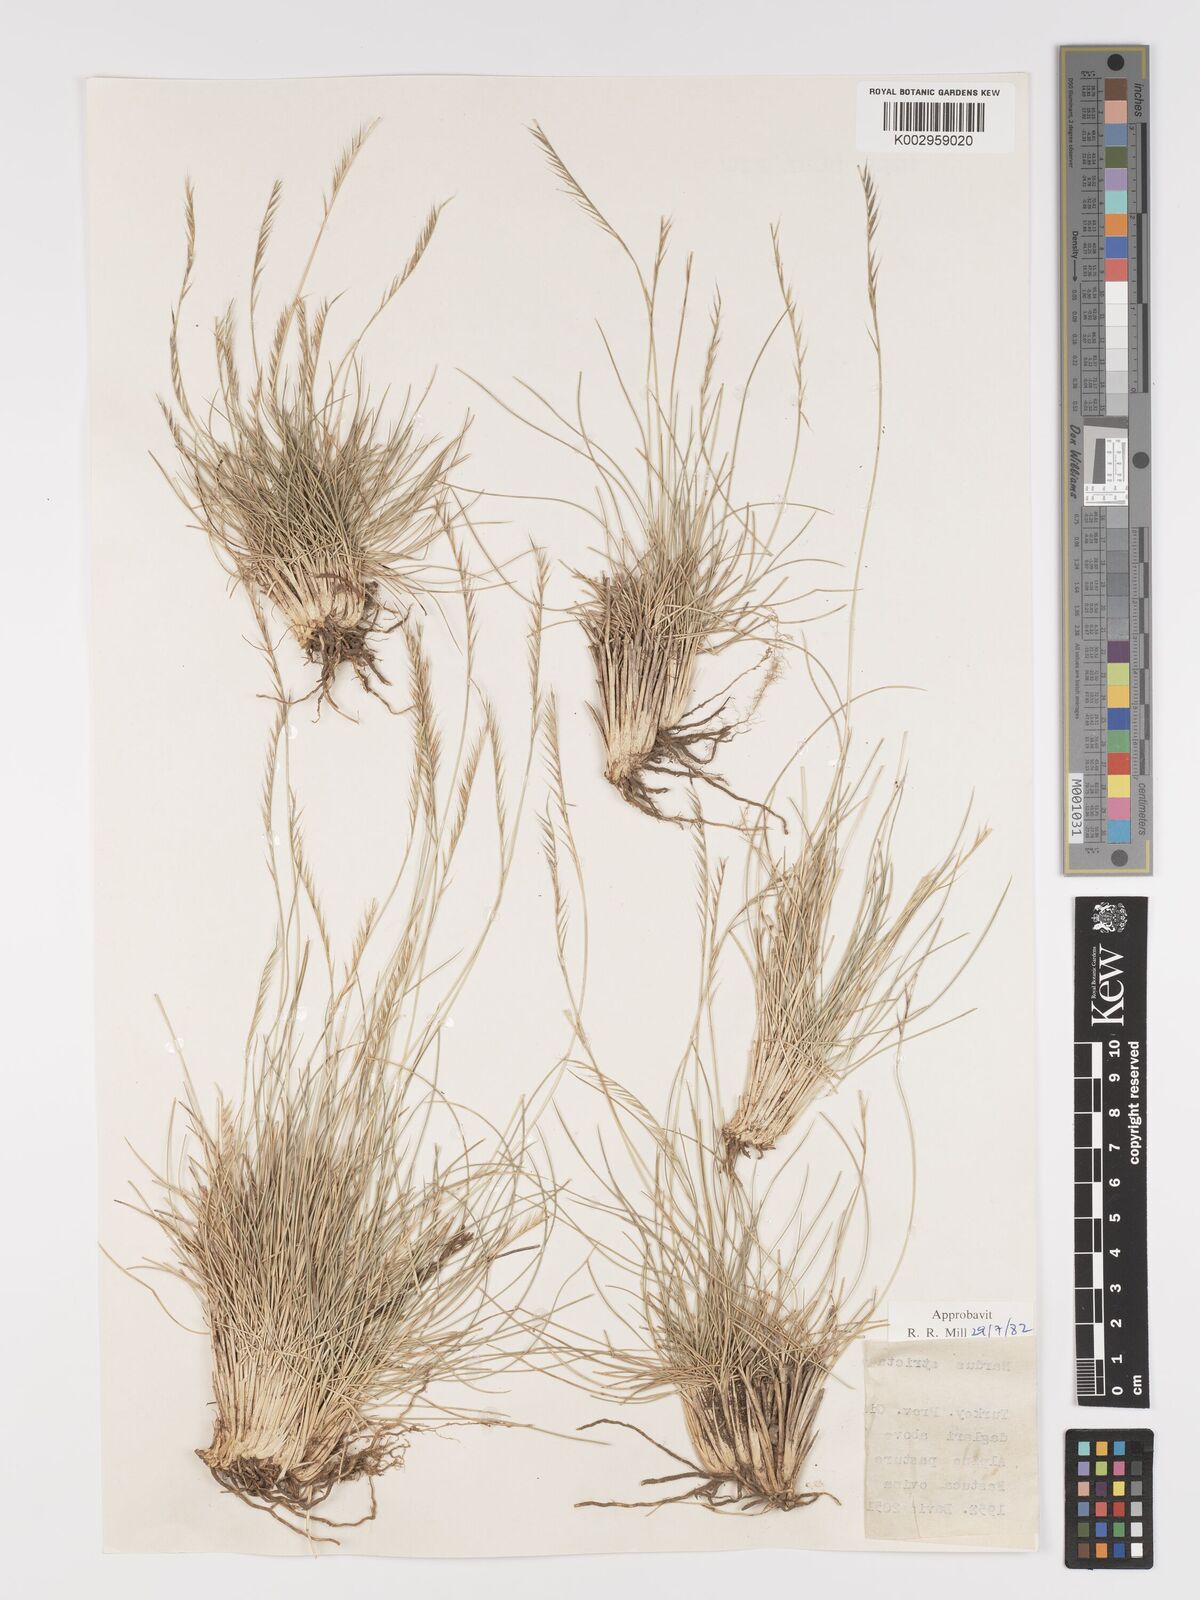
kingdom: Plantae
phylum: Tracheophyta
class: Liliopsida
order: Poales
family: Poaceae
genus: Nardus
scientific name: Nardus stricta
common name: Mat-grass
